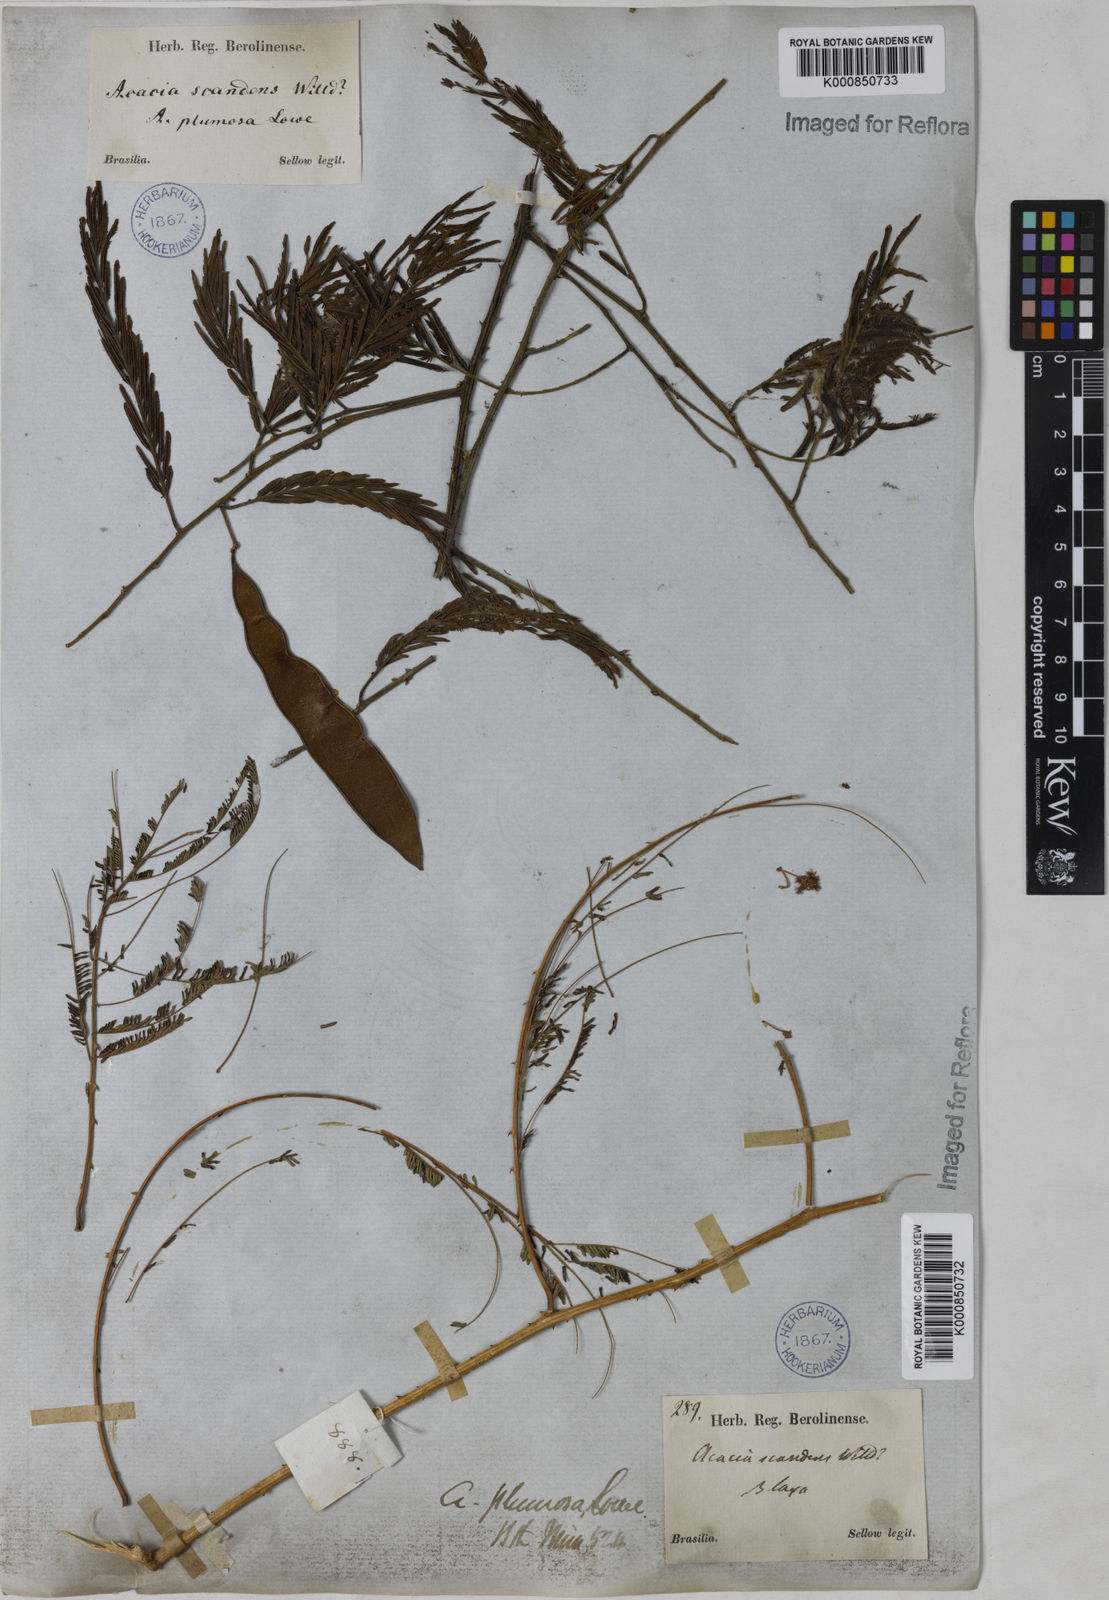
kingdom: Plantae
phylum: Tracheophyta
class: Magnoliopsida
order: Fabales
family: Fabaceae
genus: Senegalia
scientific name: Senegalia lowei
